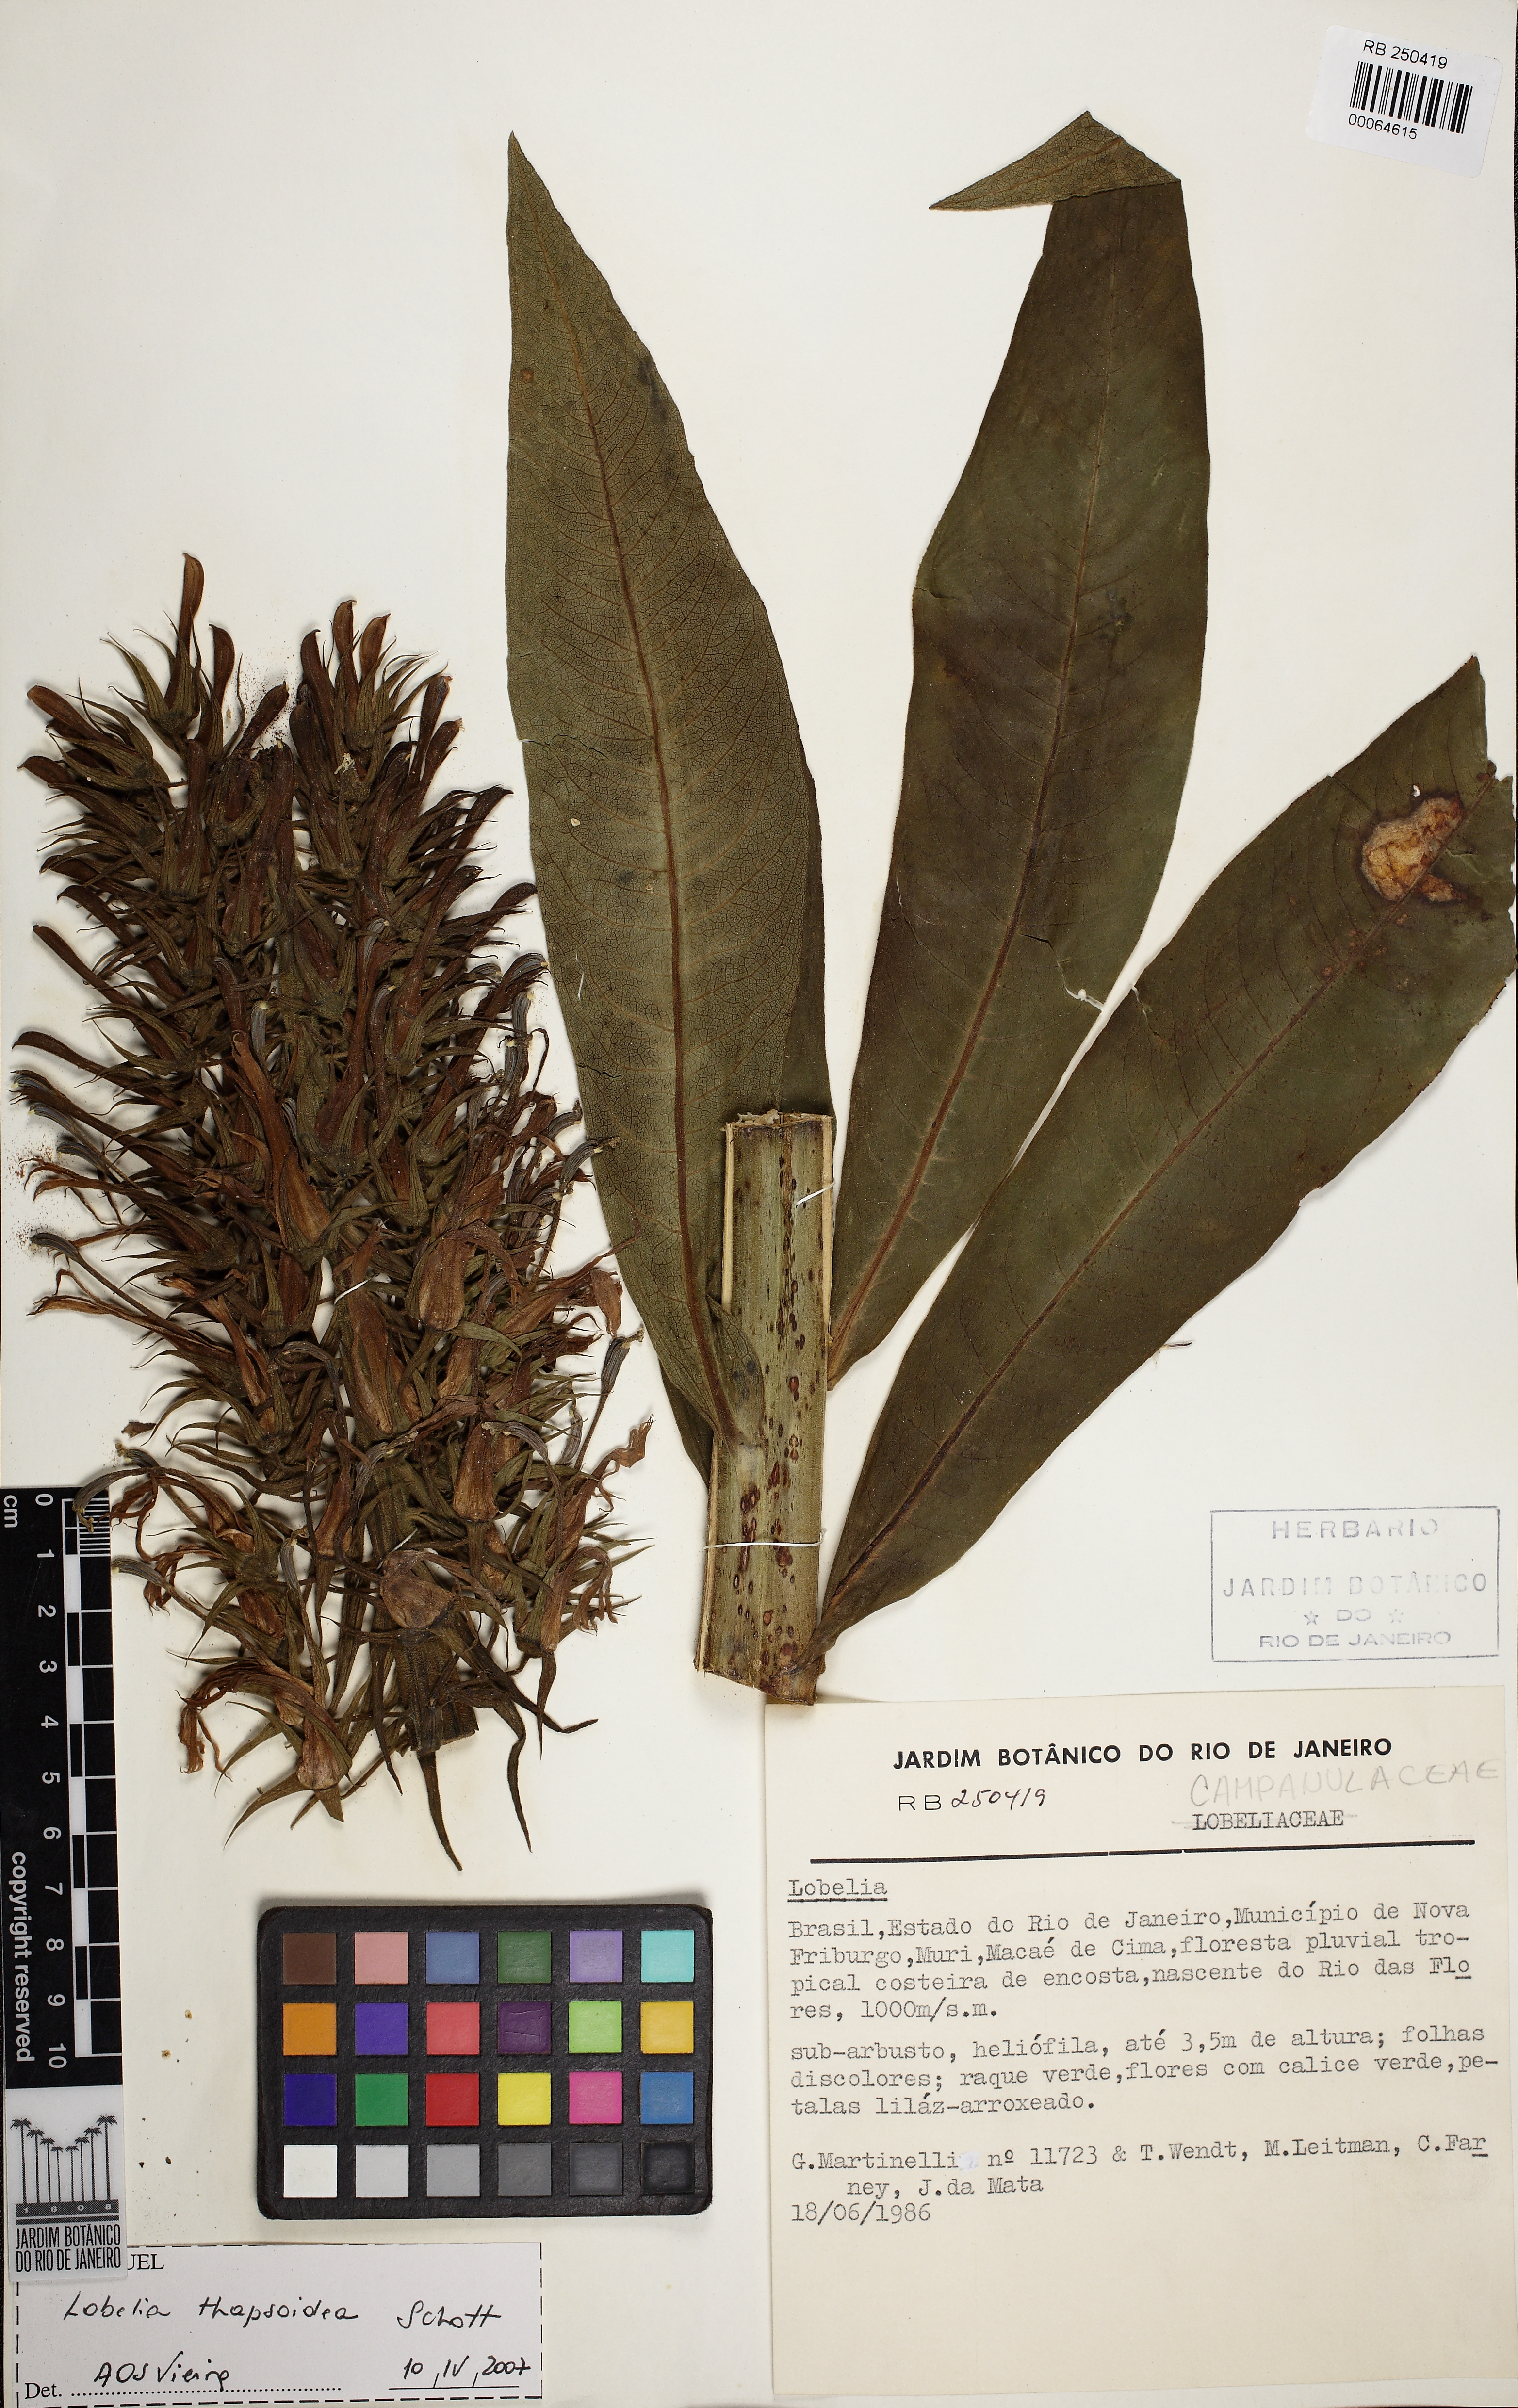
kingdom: Plantae
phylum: Tracheophyta
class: Magnoliopsida
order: Asterales
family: Campanulaceae
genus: Lobelia
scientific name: Lobelia thapsoidea
